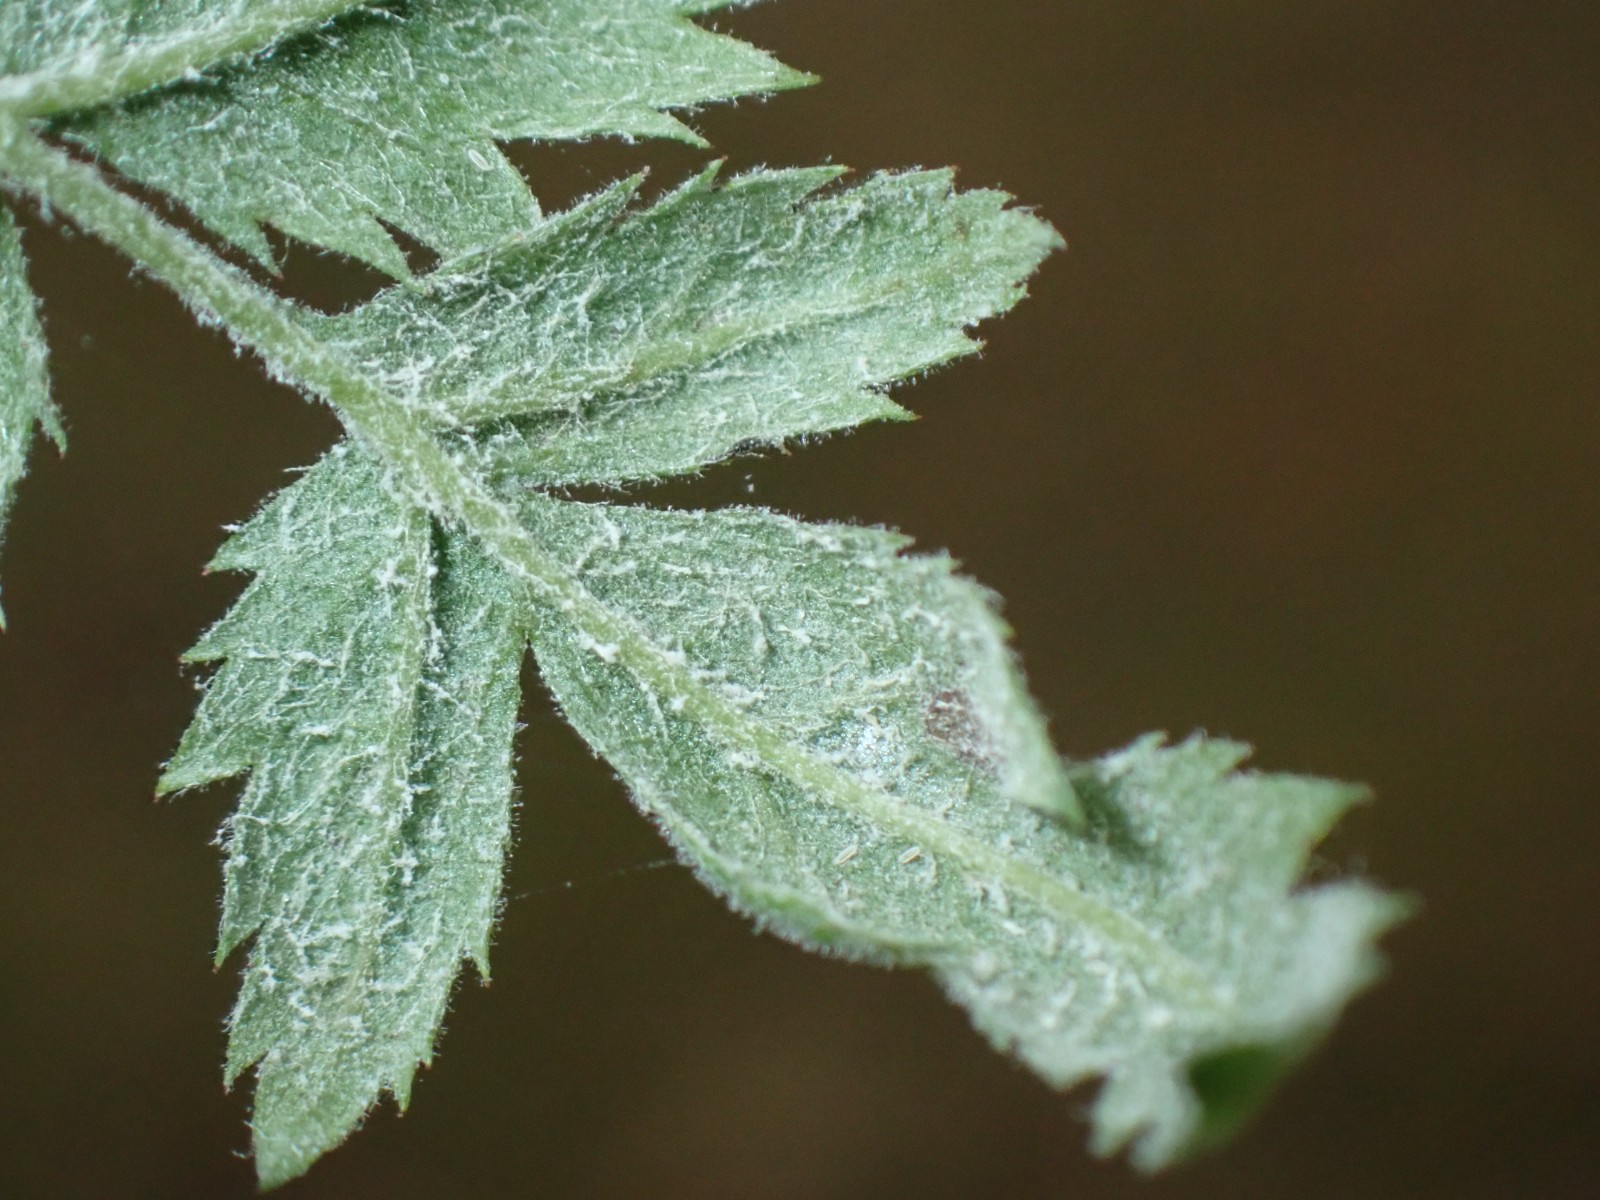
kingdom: Fungi
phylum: Ascomycota
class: Leotiomycetes
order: Helotiales
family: Erysiphaceae
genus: Podosphaera
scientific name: Podosphaera clandestina
